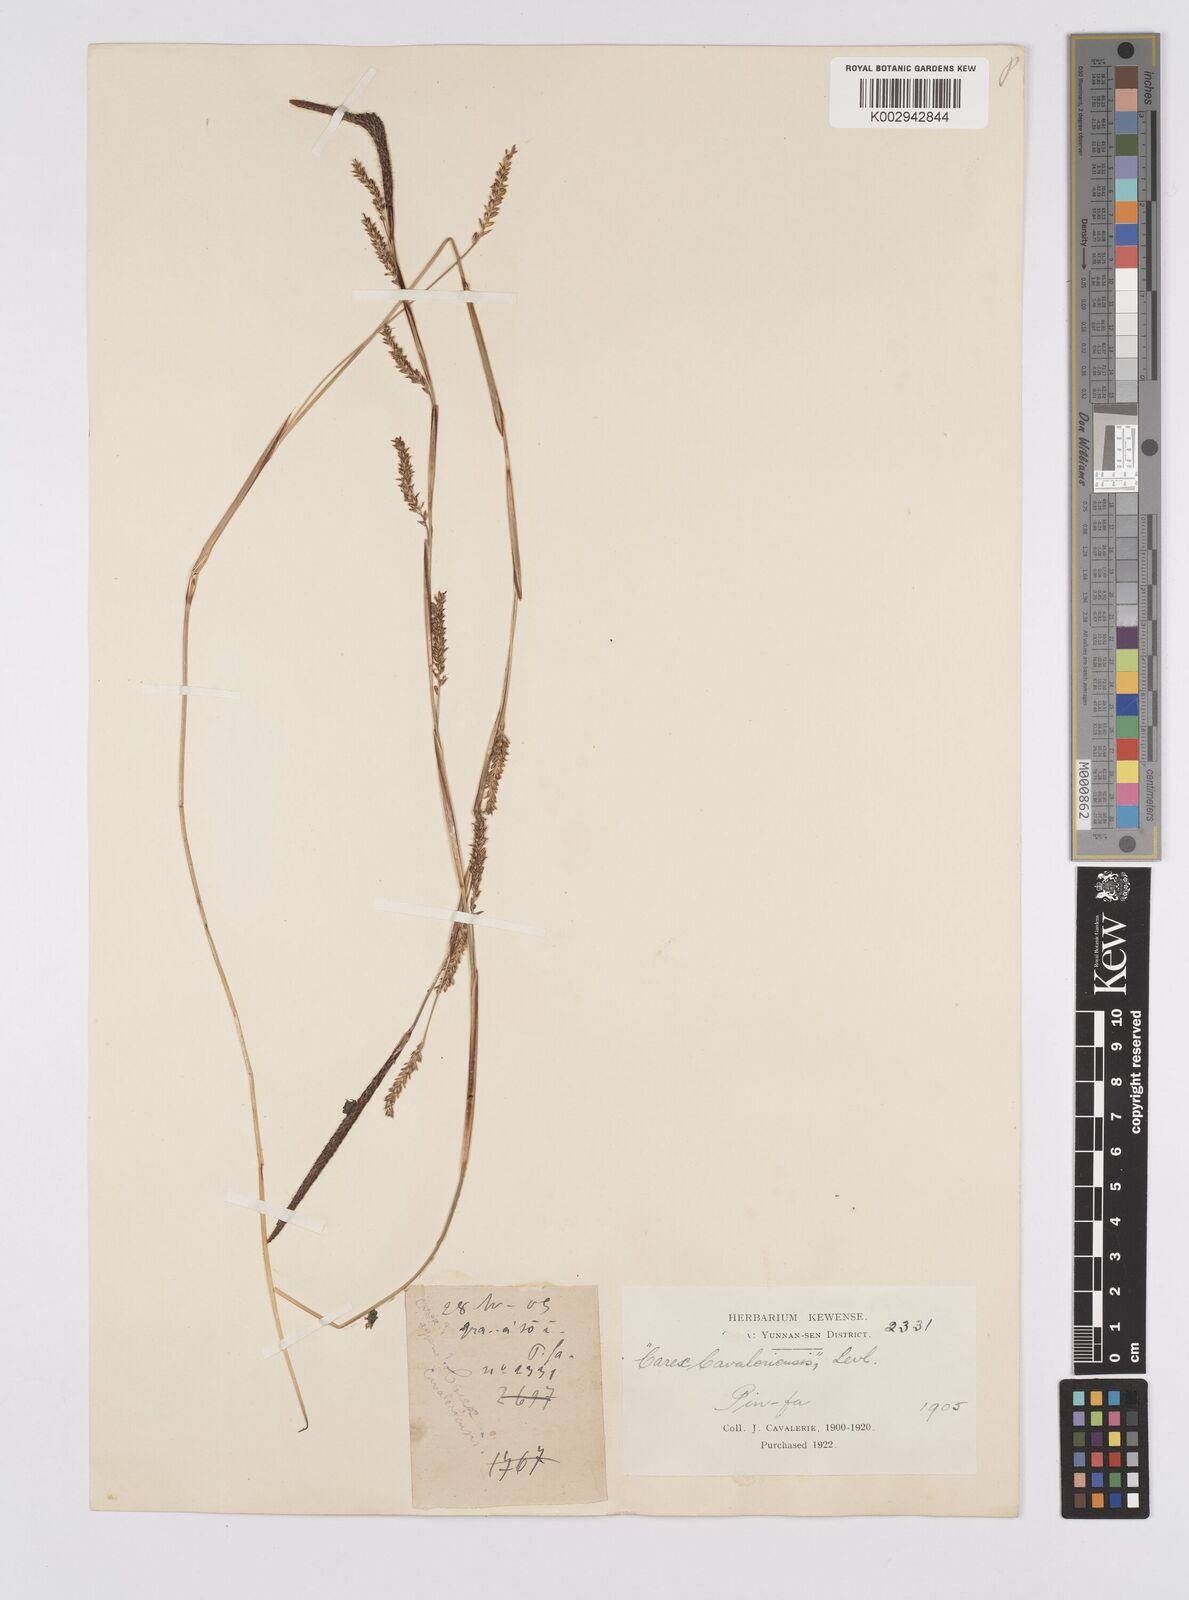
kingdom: Plantae
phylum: Tracheophyta
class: Liliopsida
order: Poales
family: Cyperaceae
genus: Carex
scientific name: Carex cavaleriensis
